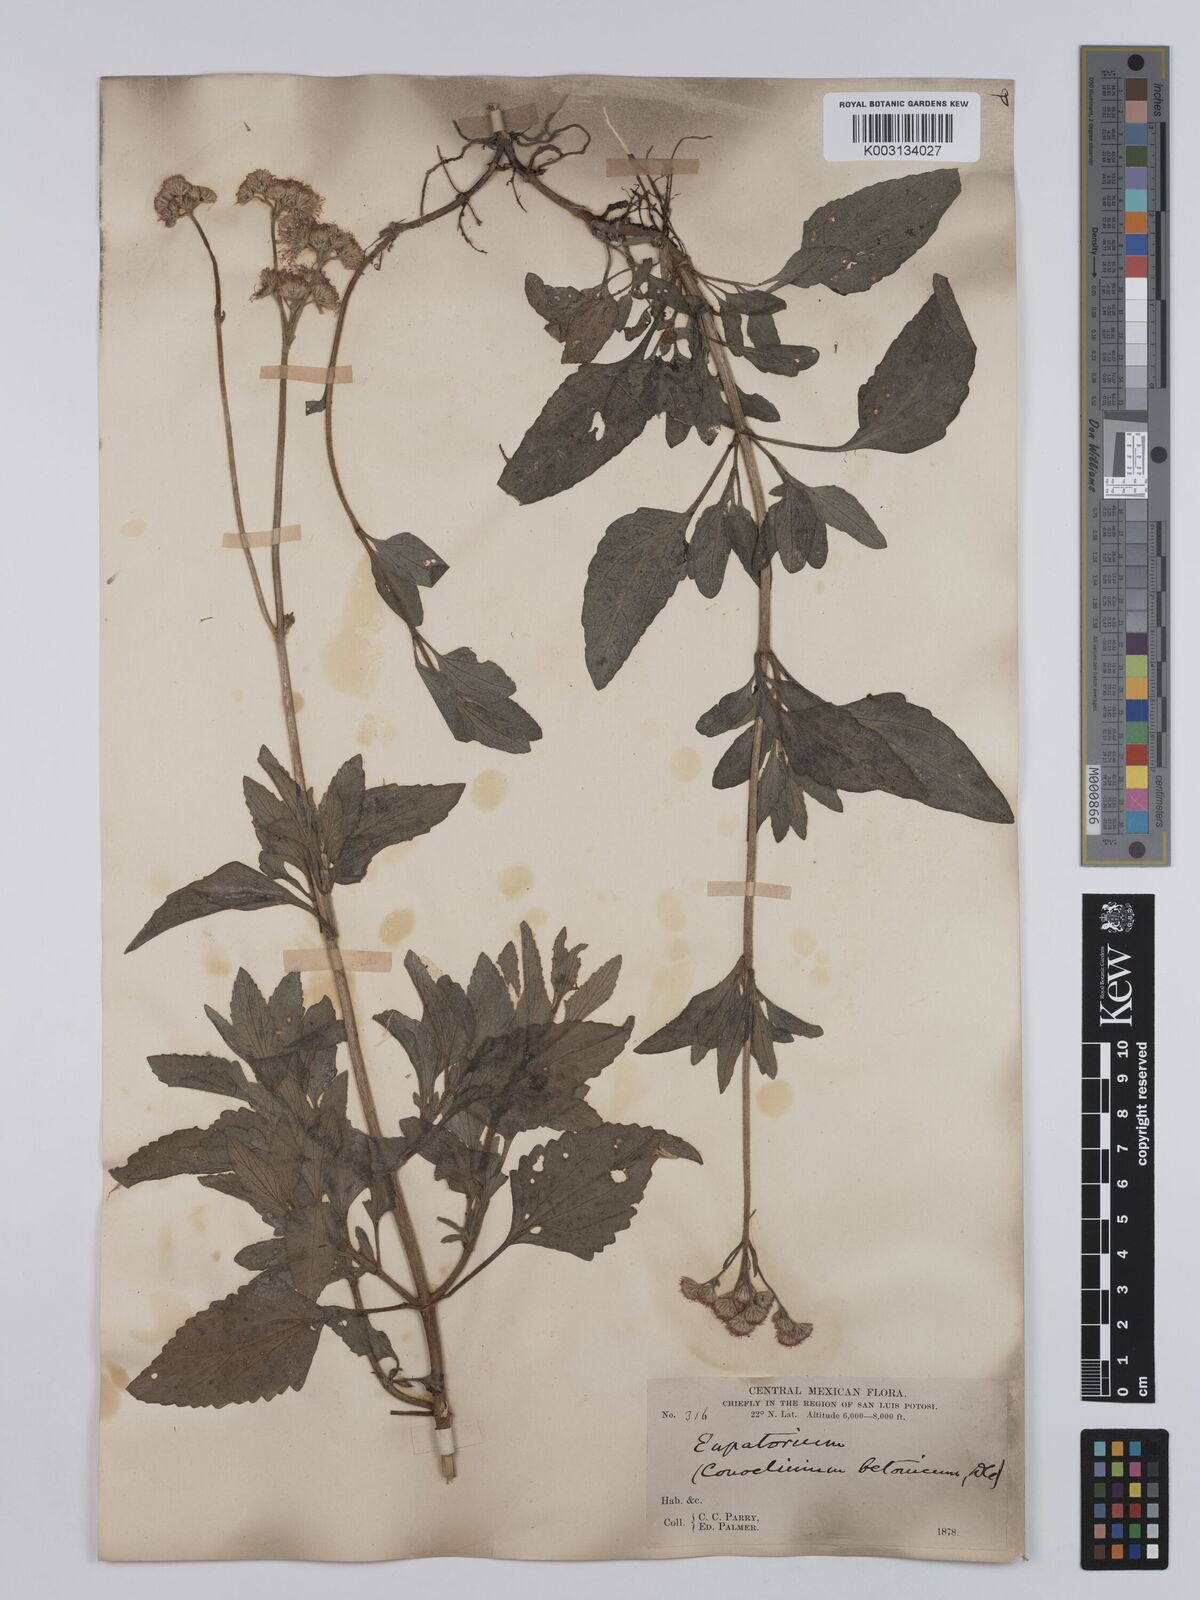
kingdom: Plantae
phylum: Tracheophyta
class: Magnoliopsida
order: Asterales
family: Asteraceae
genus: Conoclinium
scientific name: Conoclinium betonicifolium
